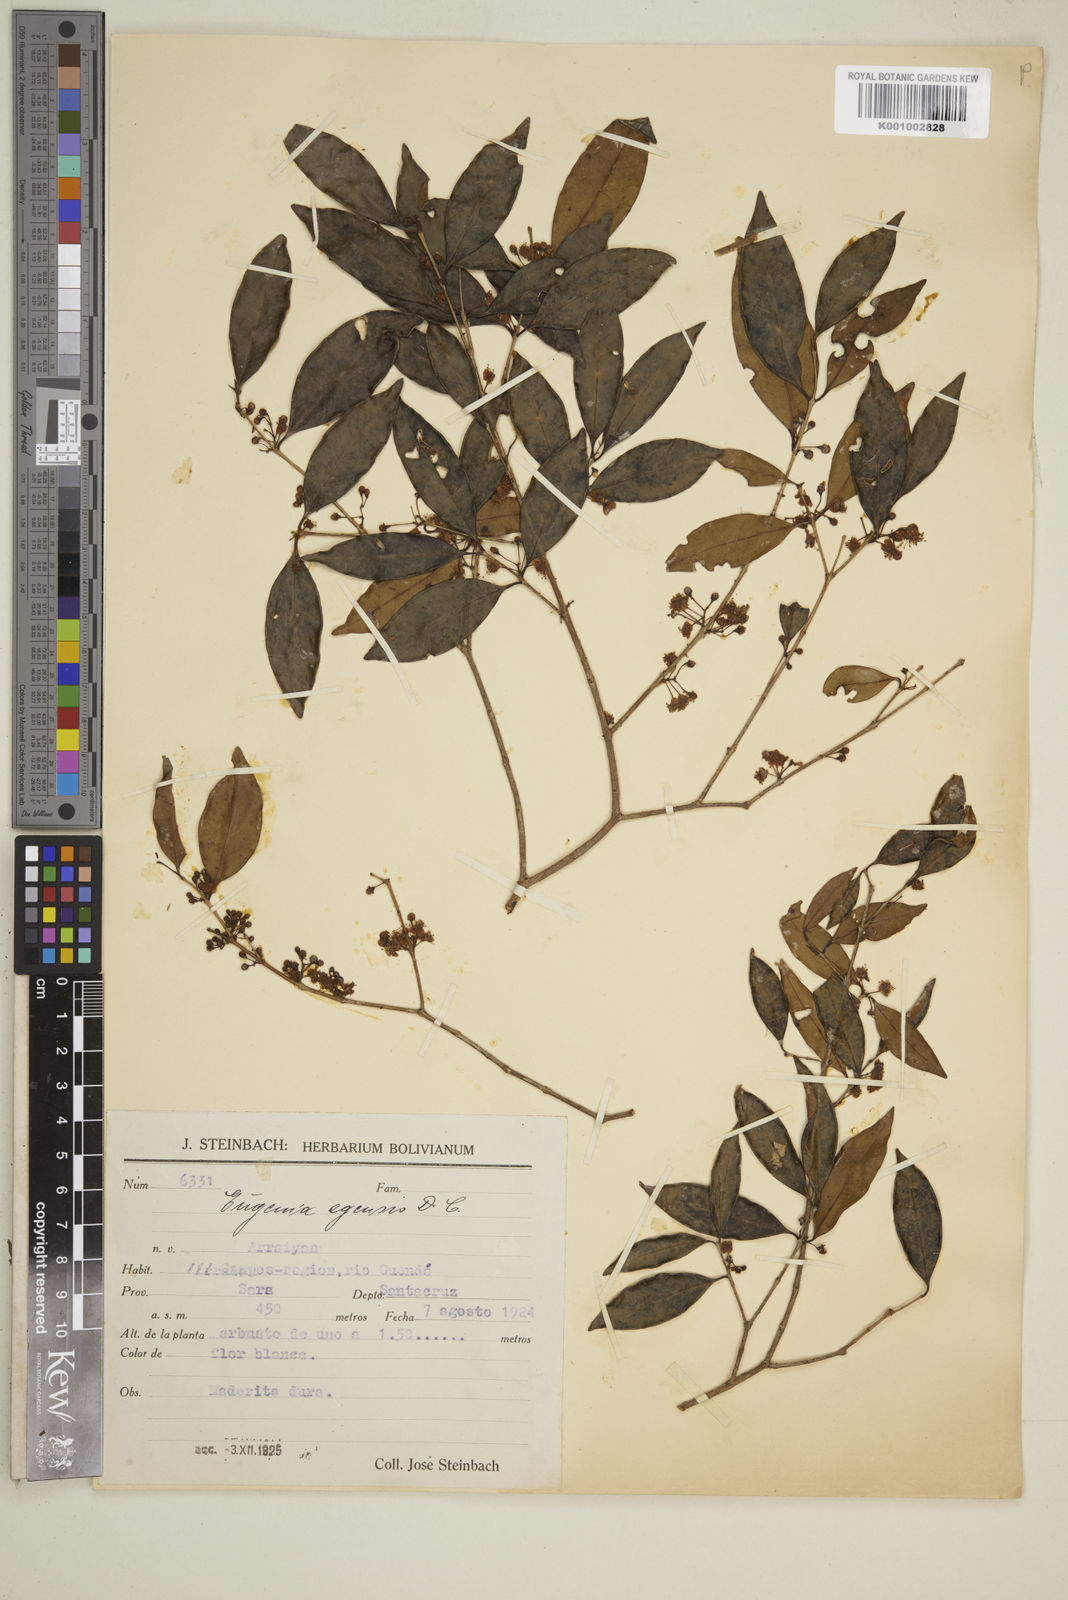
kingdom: Plantae
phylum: Tracheophyta
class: Magnoliopsida
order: Myrtales
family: Myrtaceae
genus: Eugenia
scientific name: Eugenia egensis
